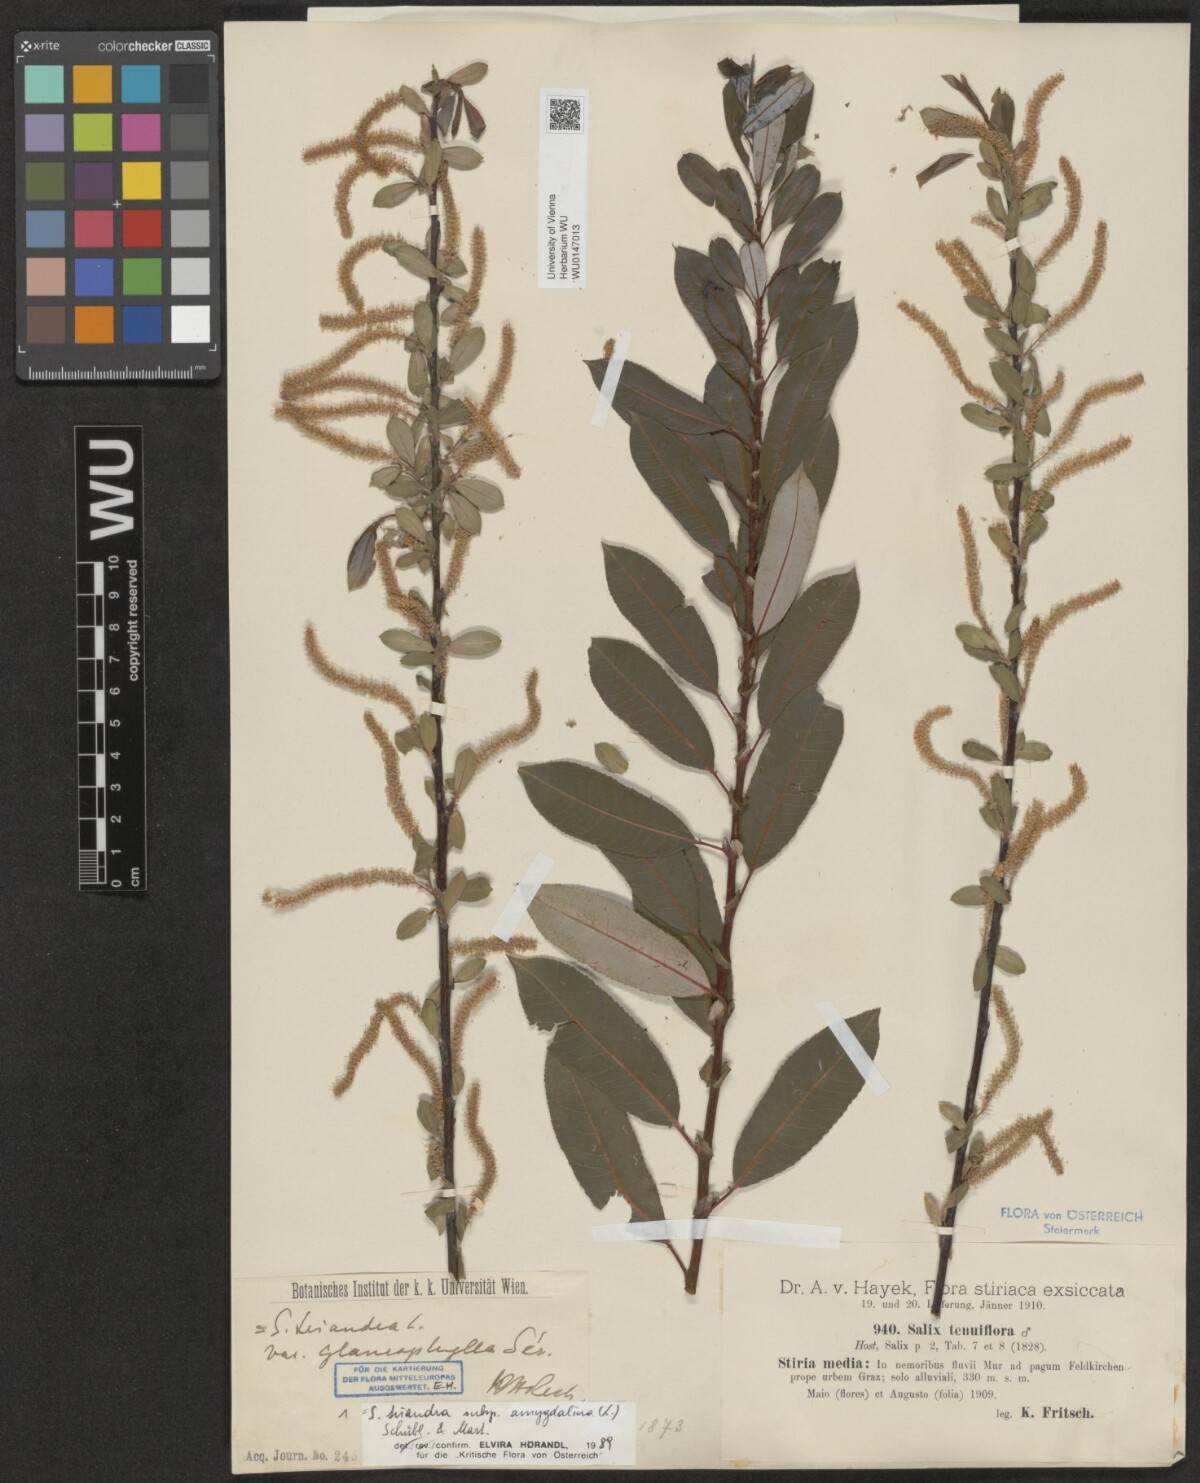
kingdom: Plantae
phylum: Tracheophyta
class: Magnoliopsida
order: Malpighiales
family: Salicaceae
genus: Salix
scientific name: Salix triandra
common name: Almond willow
